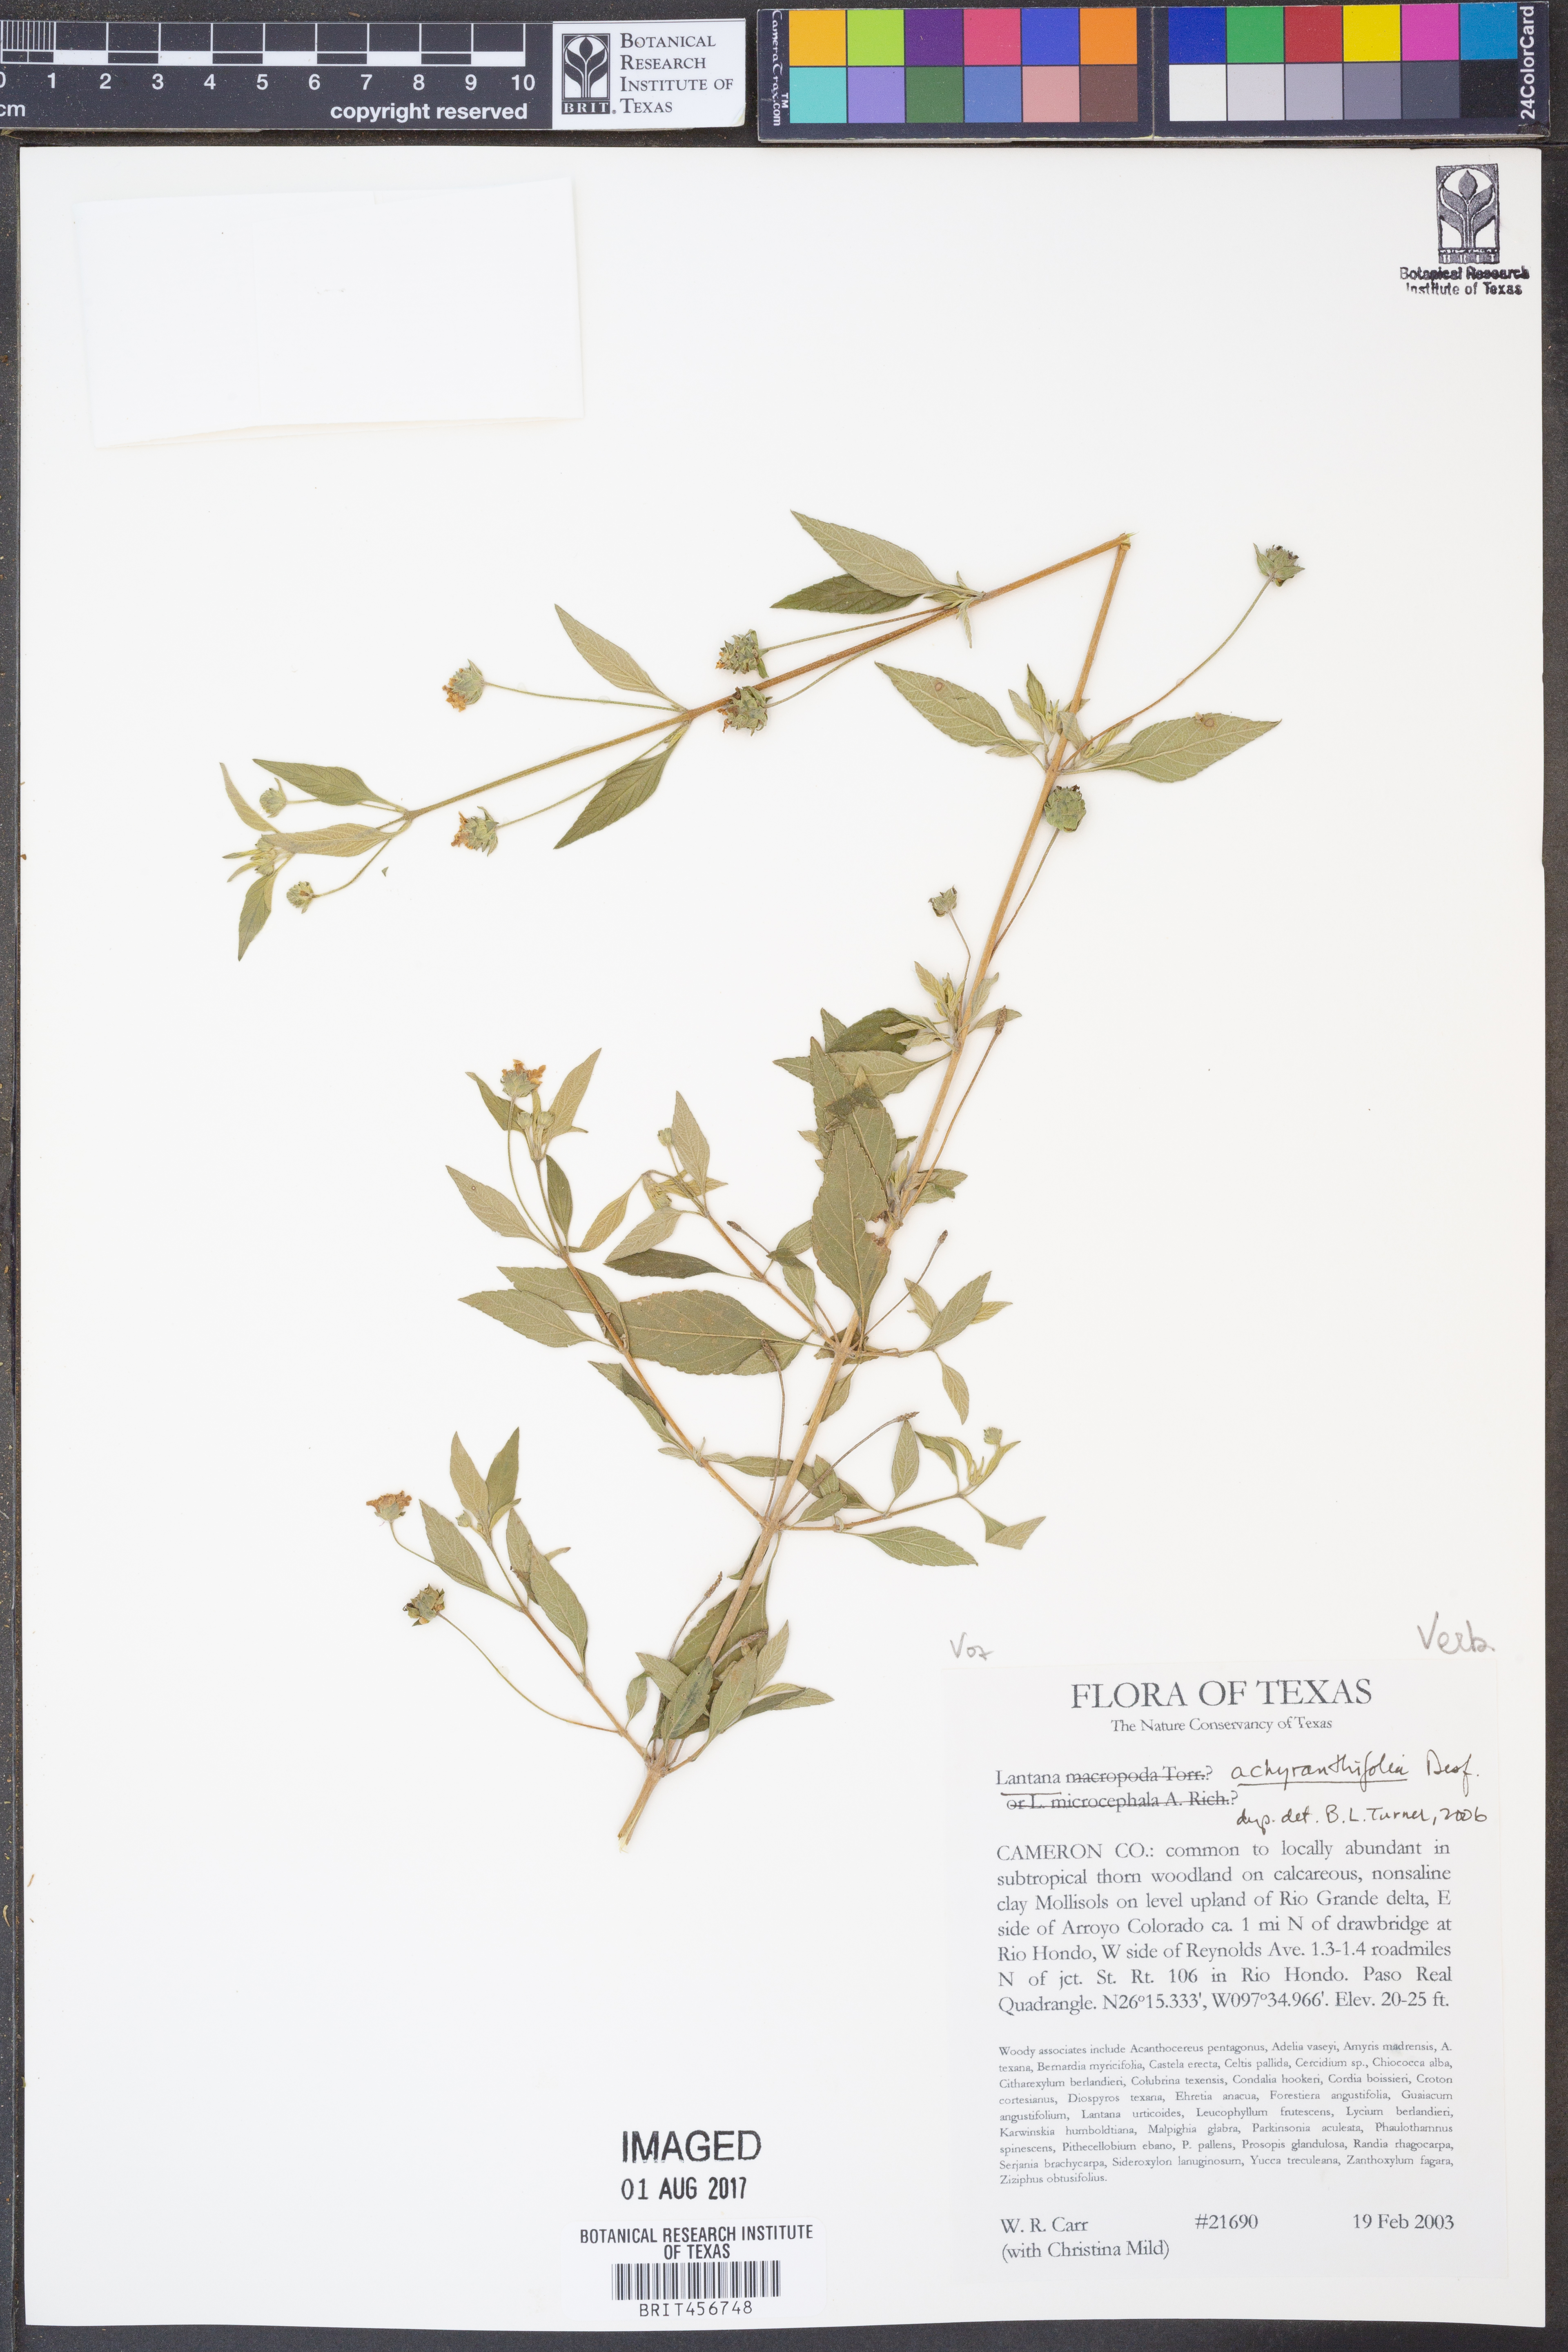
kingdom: Plantae
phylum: Tracheophyta
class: Magnoliopsida
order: Lamiales
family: Verbenaceae
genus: Lantana
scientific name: Lantana achyranthifolia
